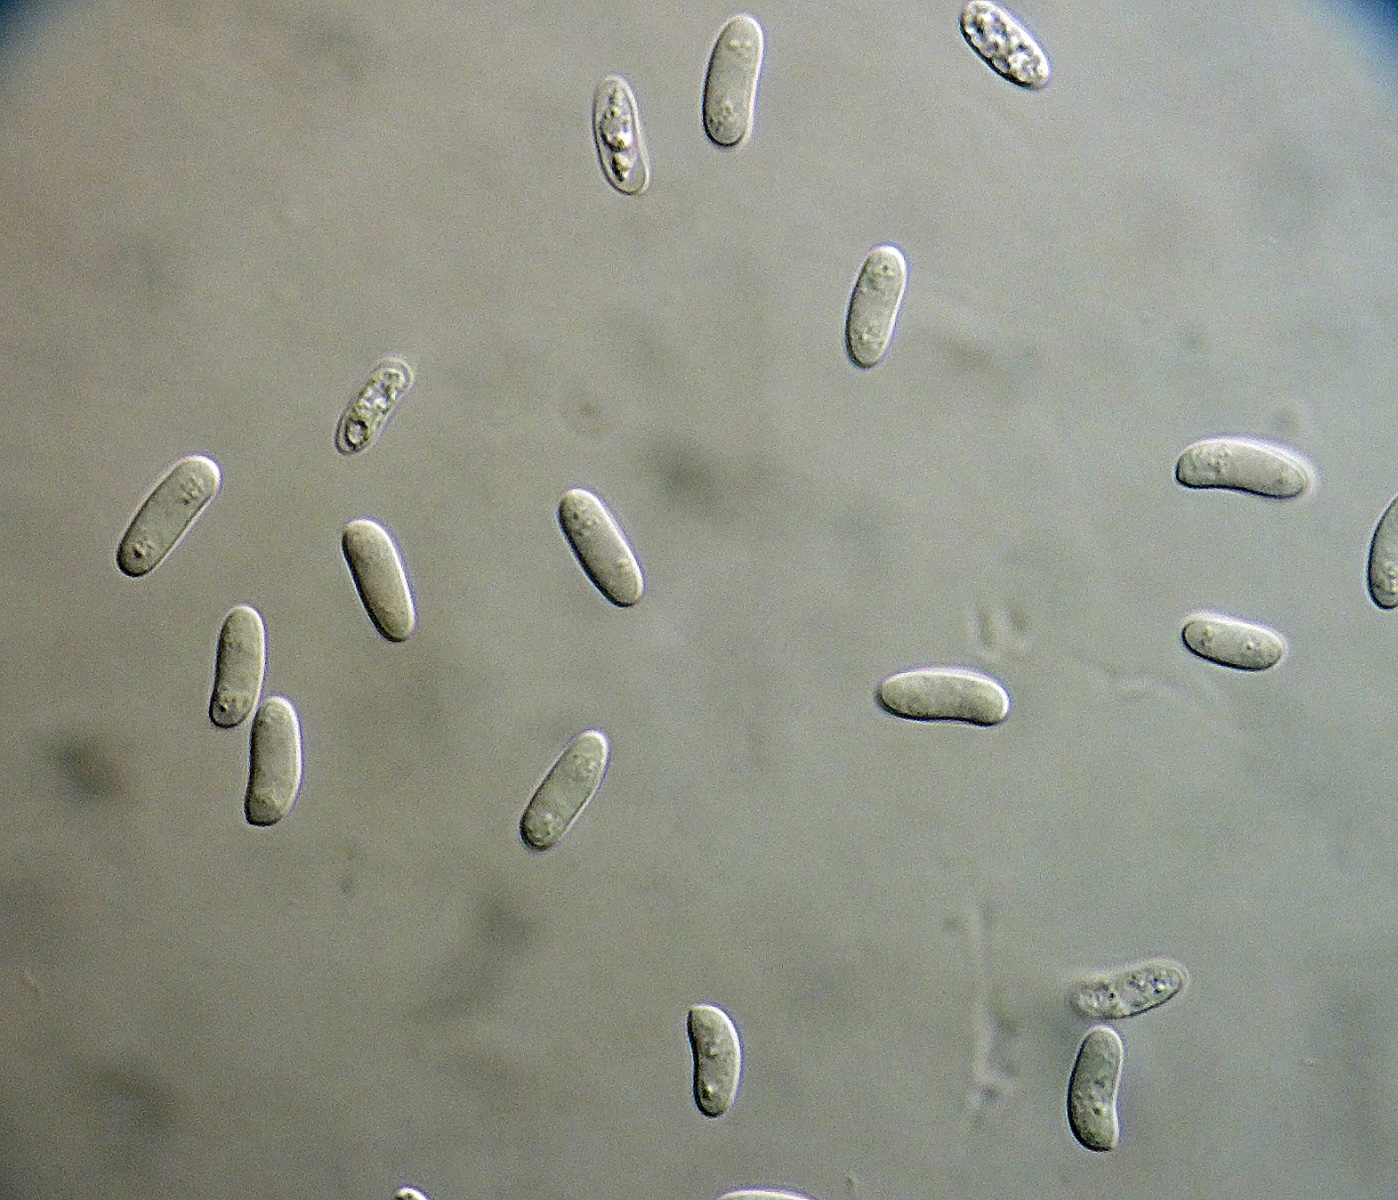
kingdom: Fungi
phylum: Basidiomycota
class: Agaricomycetes
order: Russulales
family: Peniophoraceae
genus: Peniophora
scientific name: Peniophora lycii
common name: grynet voksskind
